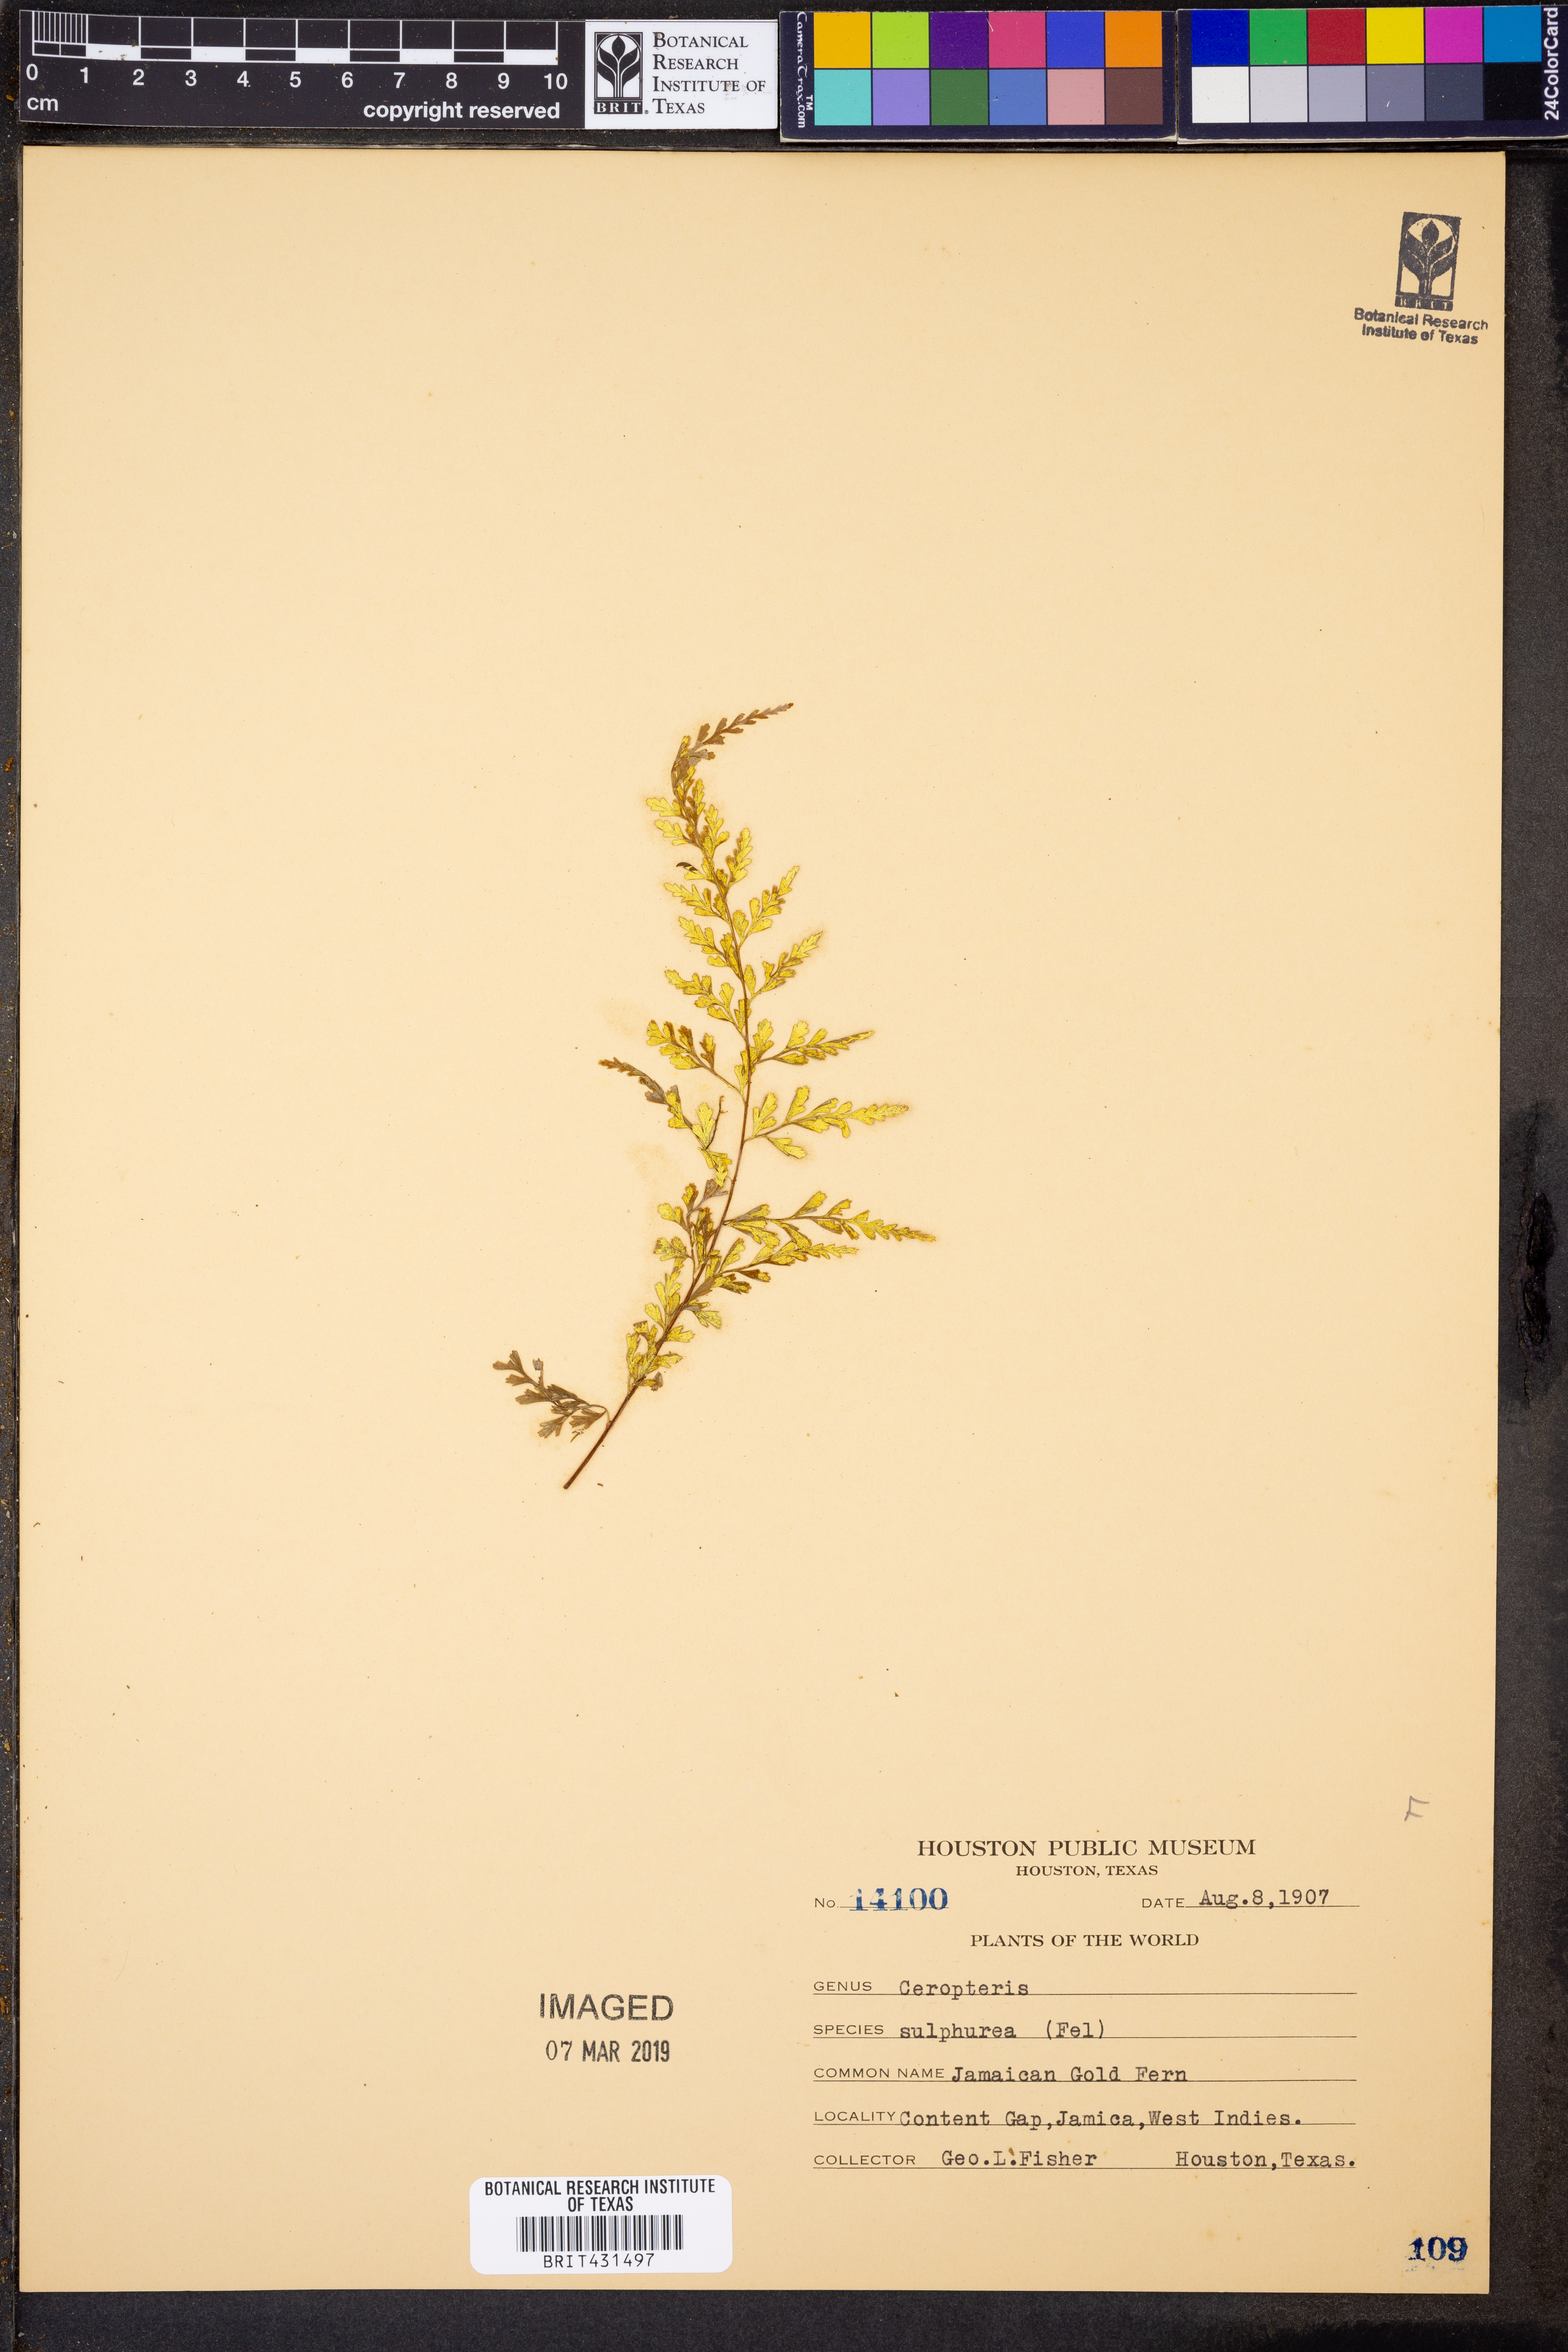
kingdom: Plantae
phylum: Tracheophyta
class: Polypodiopsida
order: Polypodiales
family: Pteridaceae
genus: Pityrogramma
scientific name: Pityrogramma sulphurea
